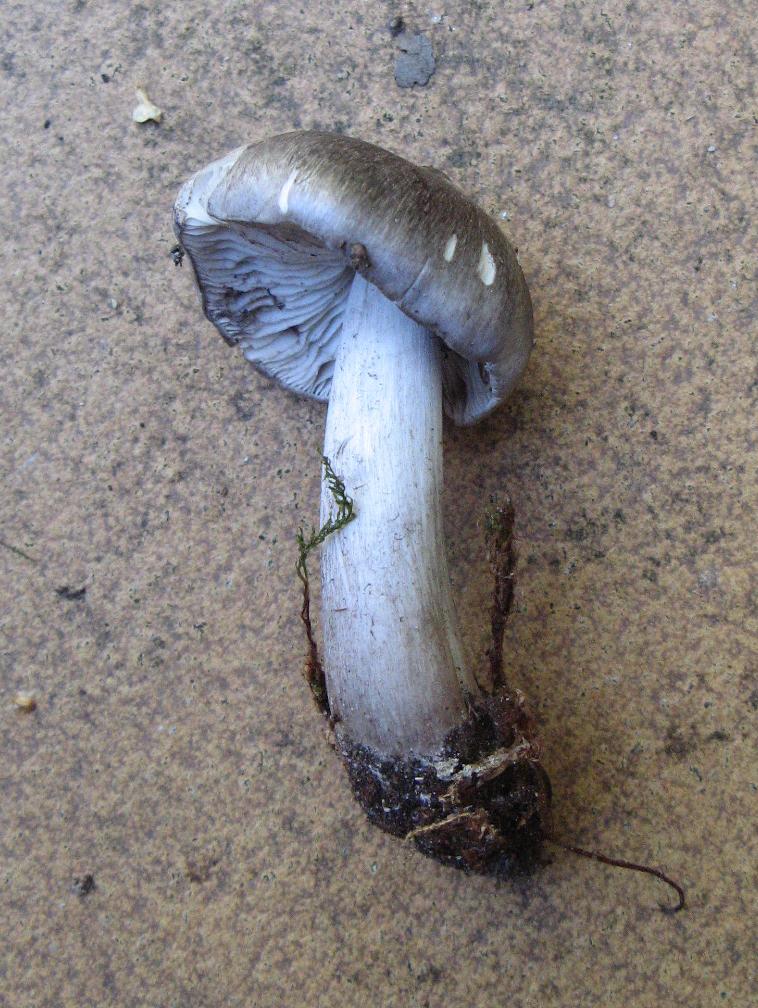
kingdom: Fungi
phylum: Basidiomycota
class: Agaricomycetes
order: Agaricales
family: Tricholomataceae
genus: Tricholoma
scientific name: Tricholoma sciodes
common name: stribet ridderhat
